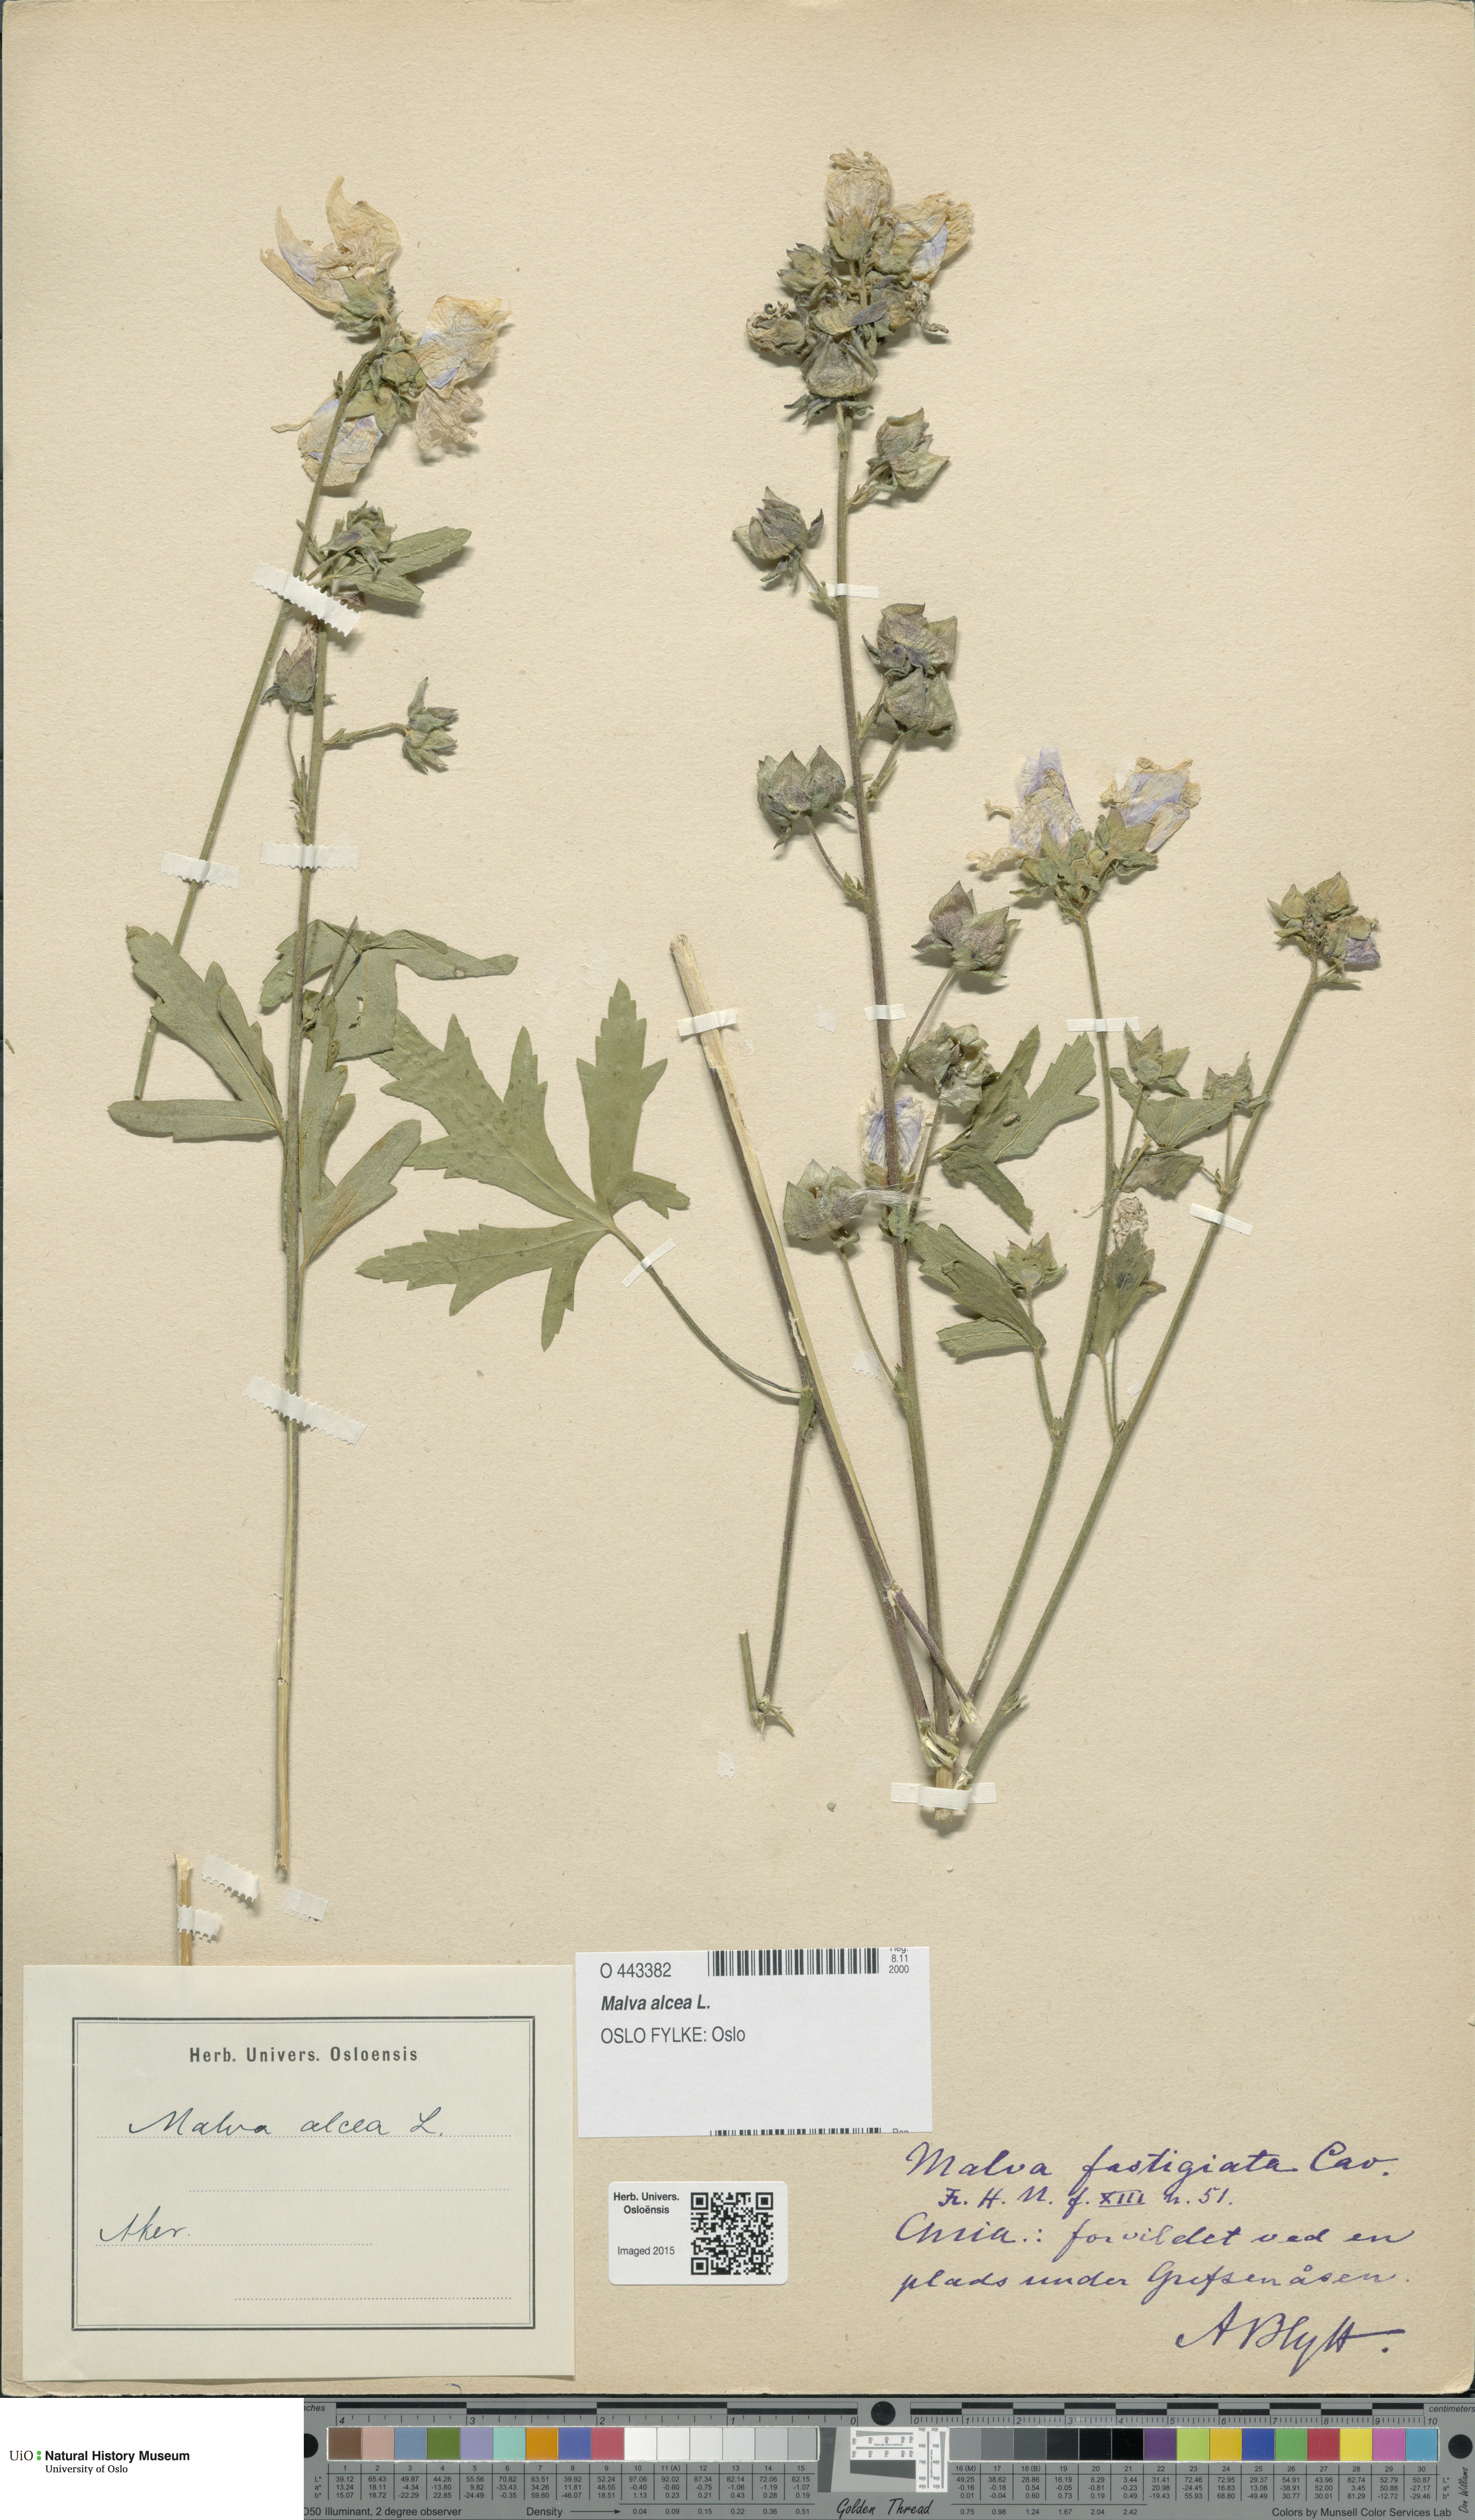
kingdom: Plantae
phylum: Tracheophyta
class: Magnoliopsida
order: Malvales
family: Malvaceae
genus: Malva
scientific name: Malva alcea
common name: Greater musk-mallow
